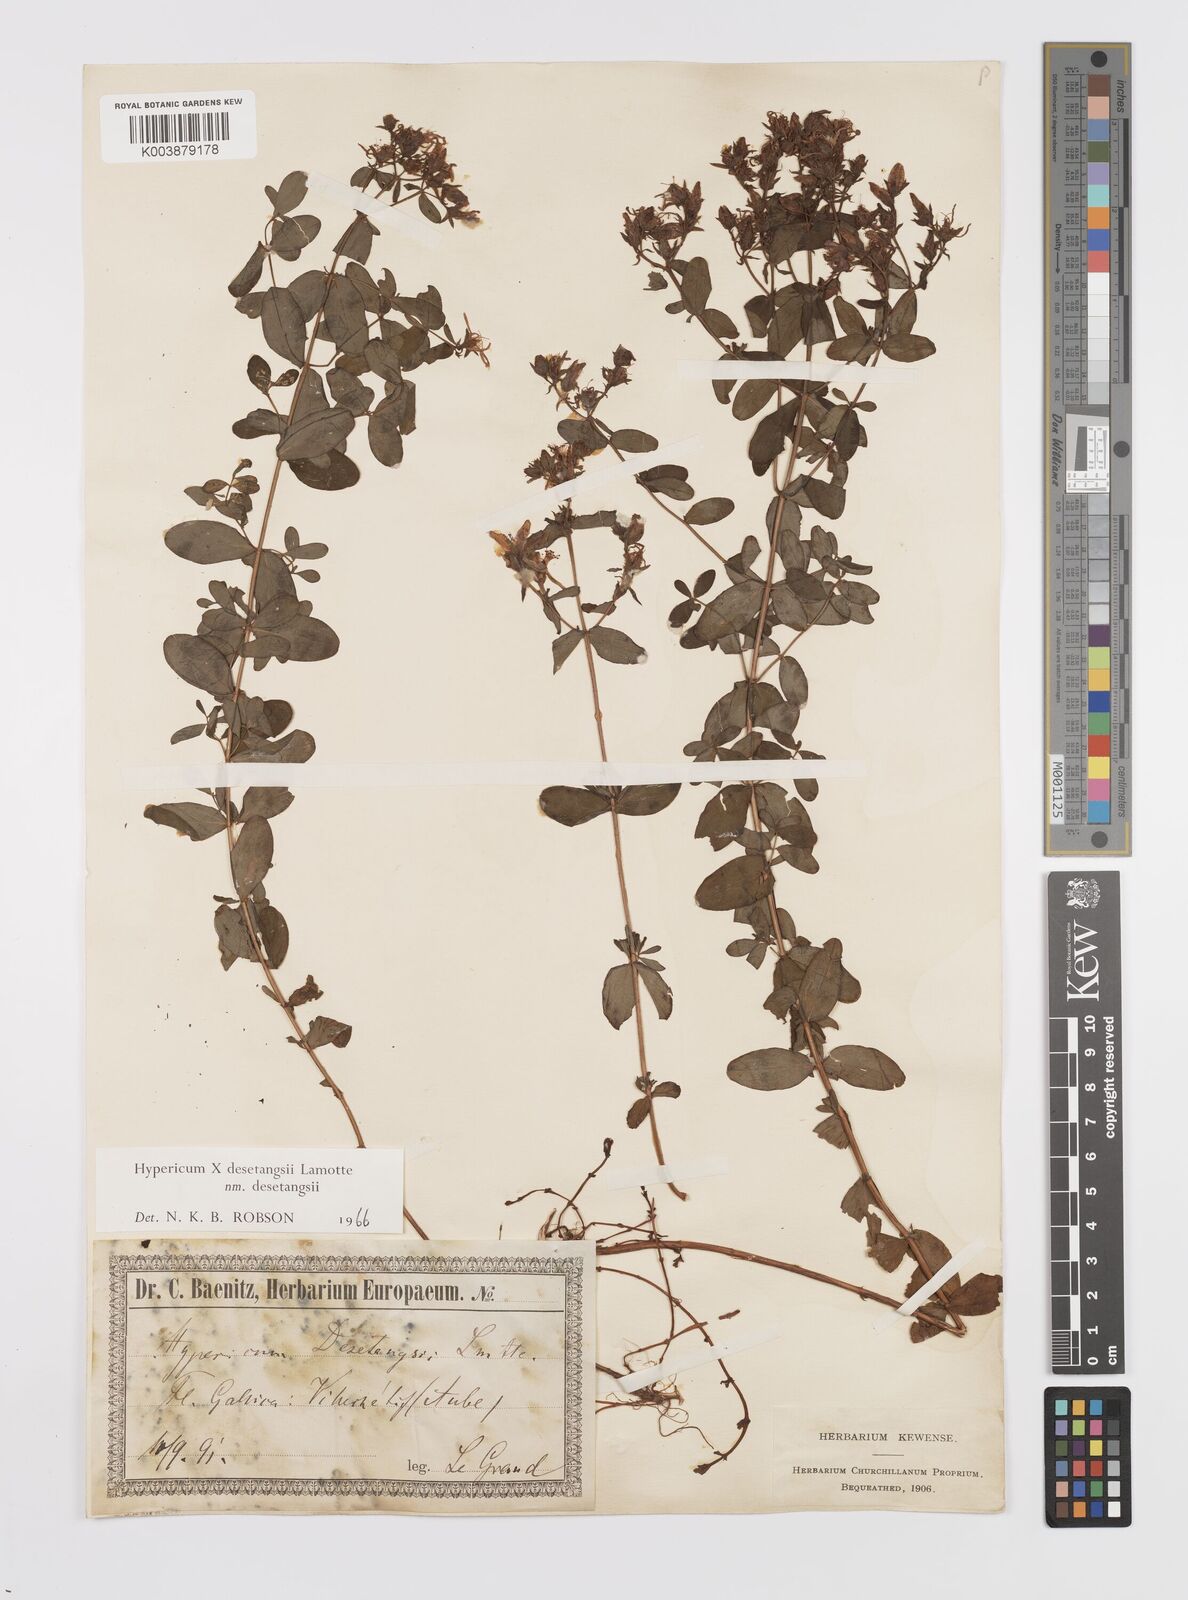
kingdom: Plantae
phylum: Tracheophyta
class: Magnoliopsida
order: Malpighiales
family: Hypericaceae
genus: Hypericum
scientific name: Hypericum desetangsii
